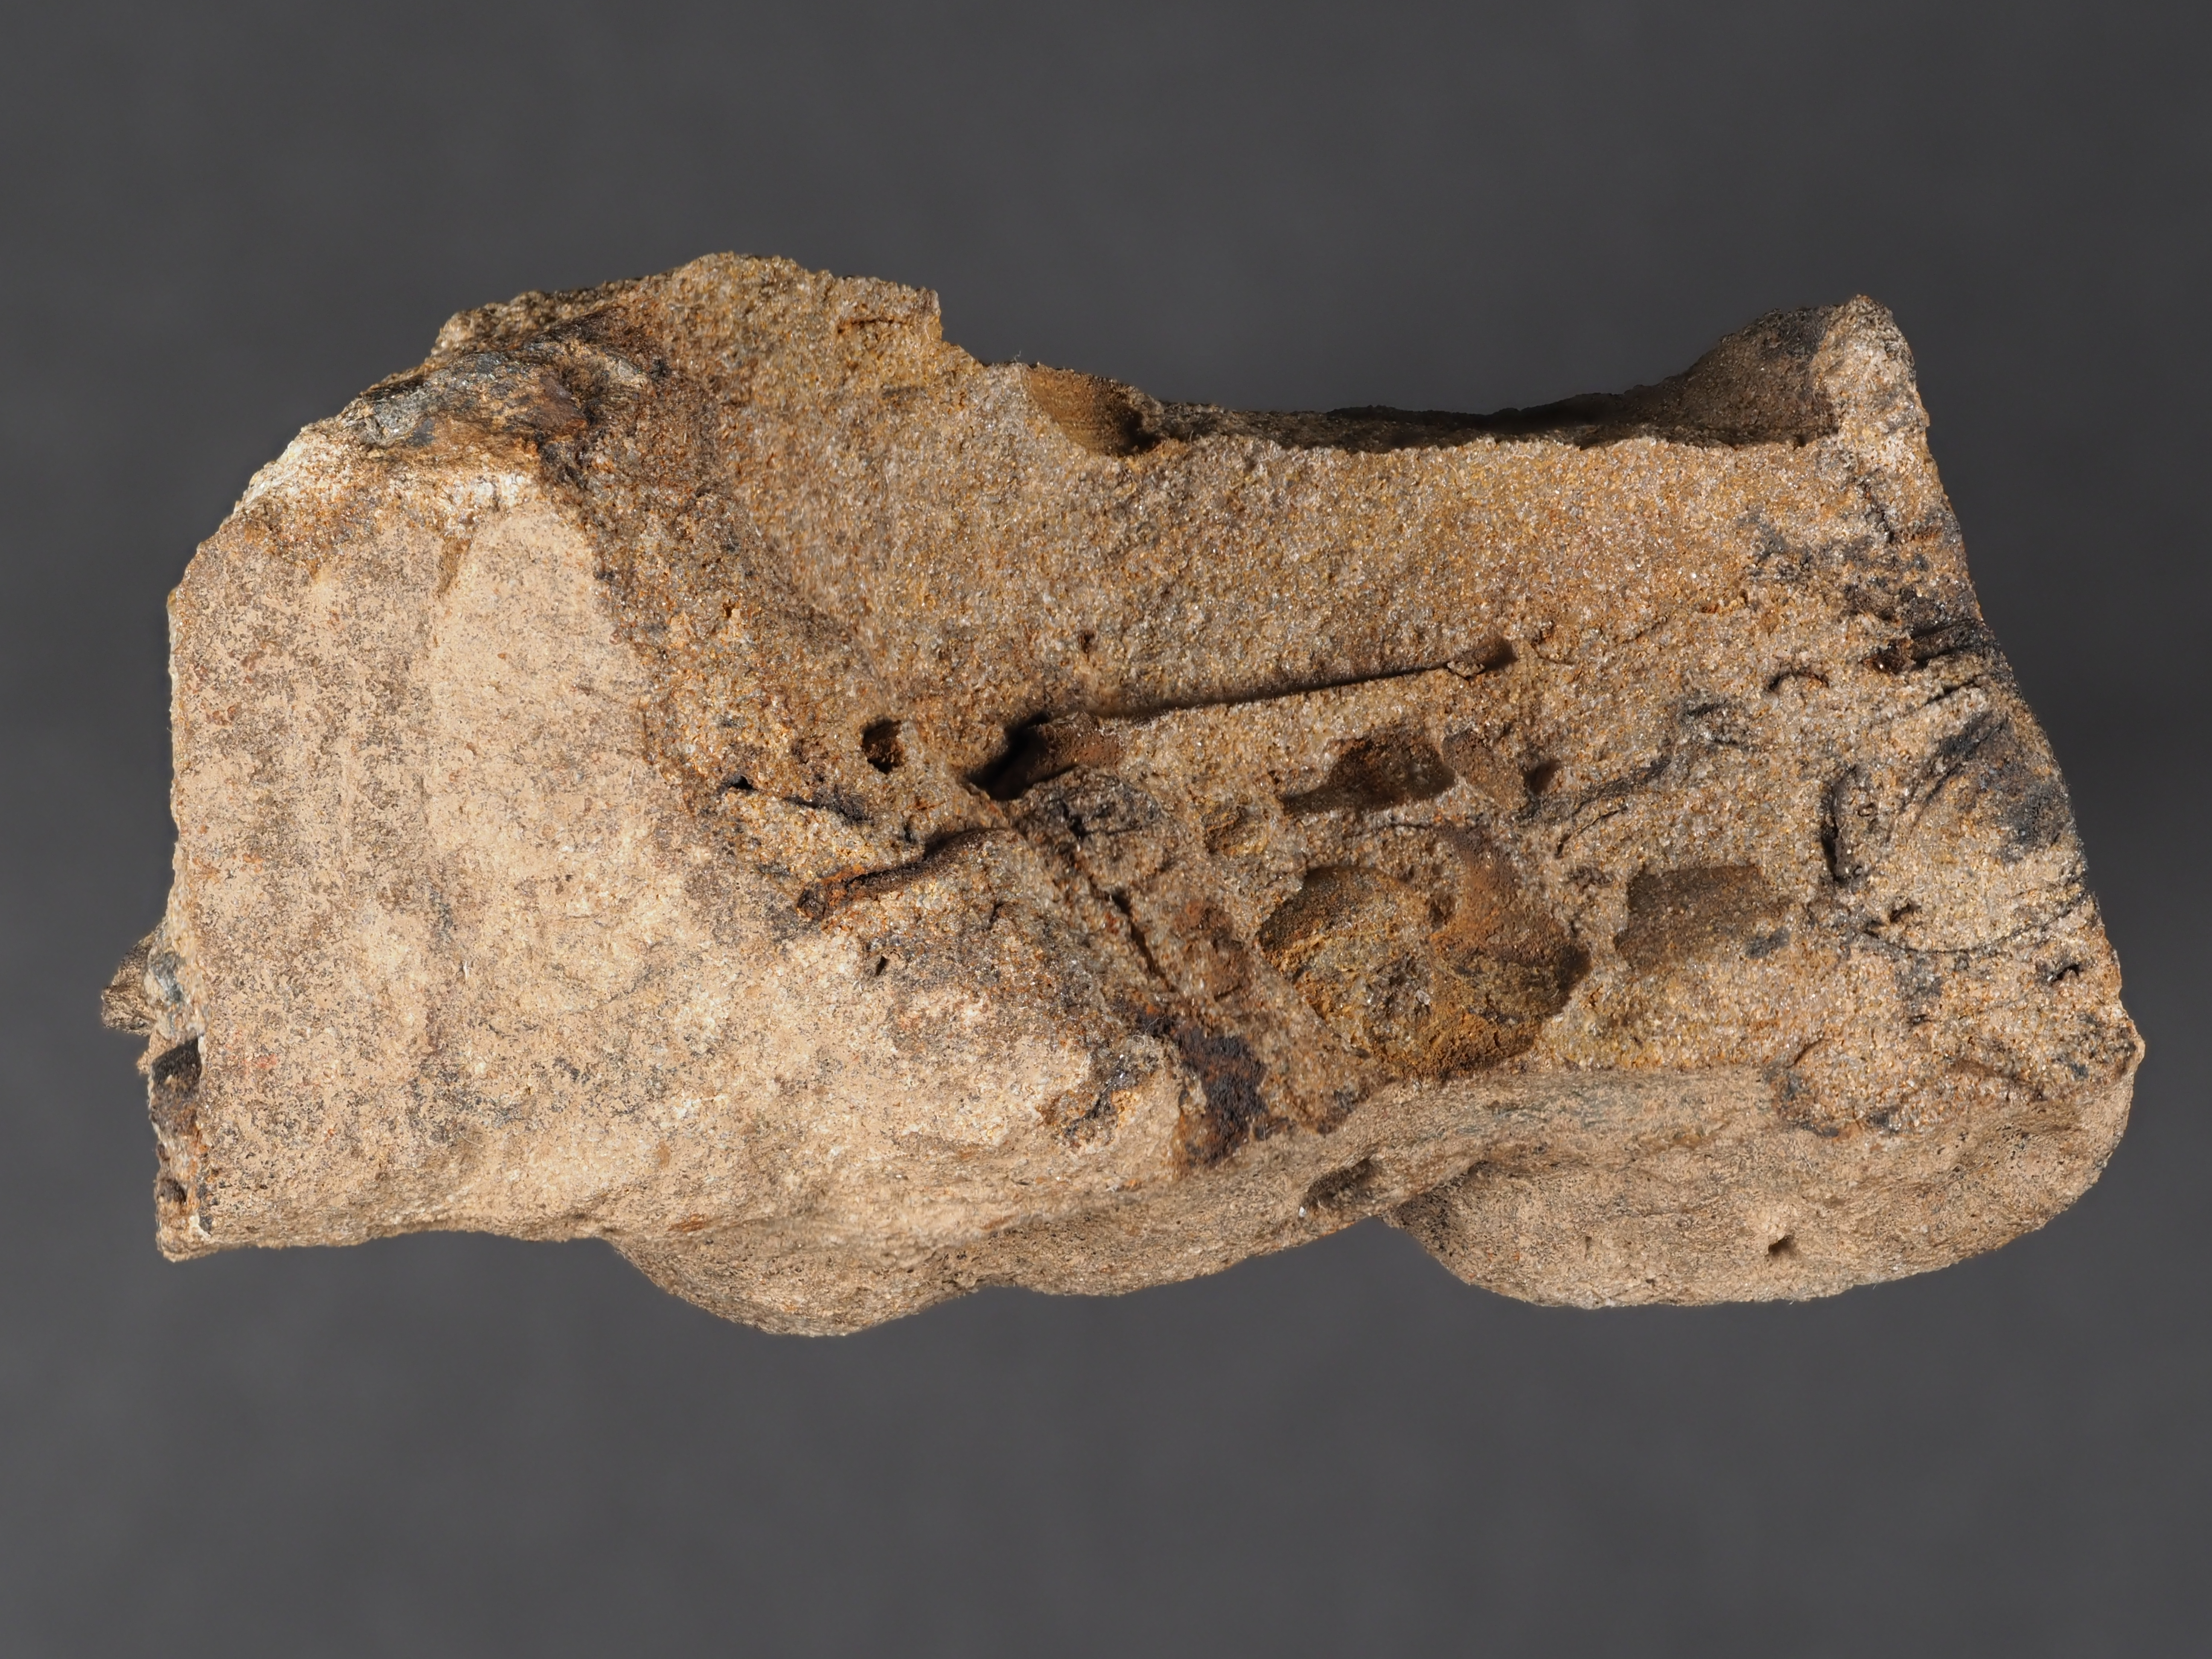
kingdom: Animalia
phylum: Arthropoda
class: Trilobita
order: Phacopida
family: Bathycheilidae
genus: Burmeisterella
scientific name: Burmeisterella
